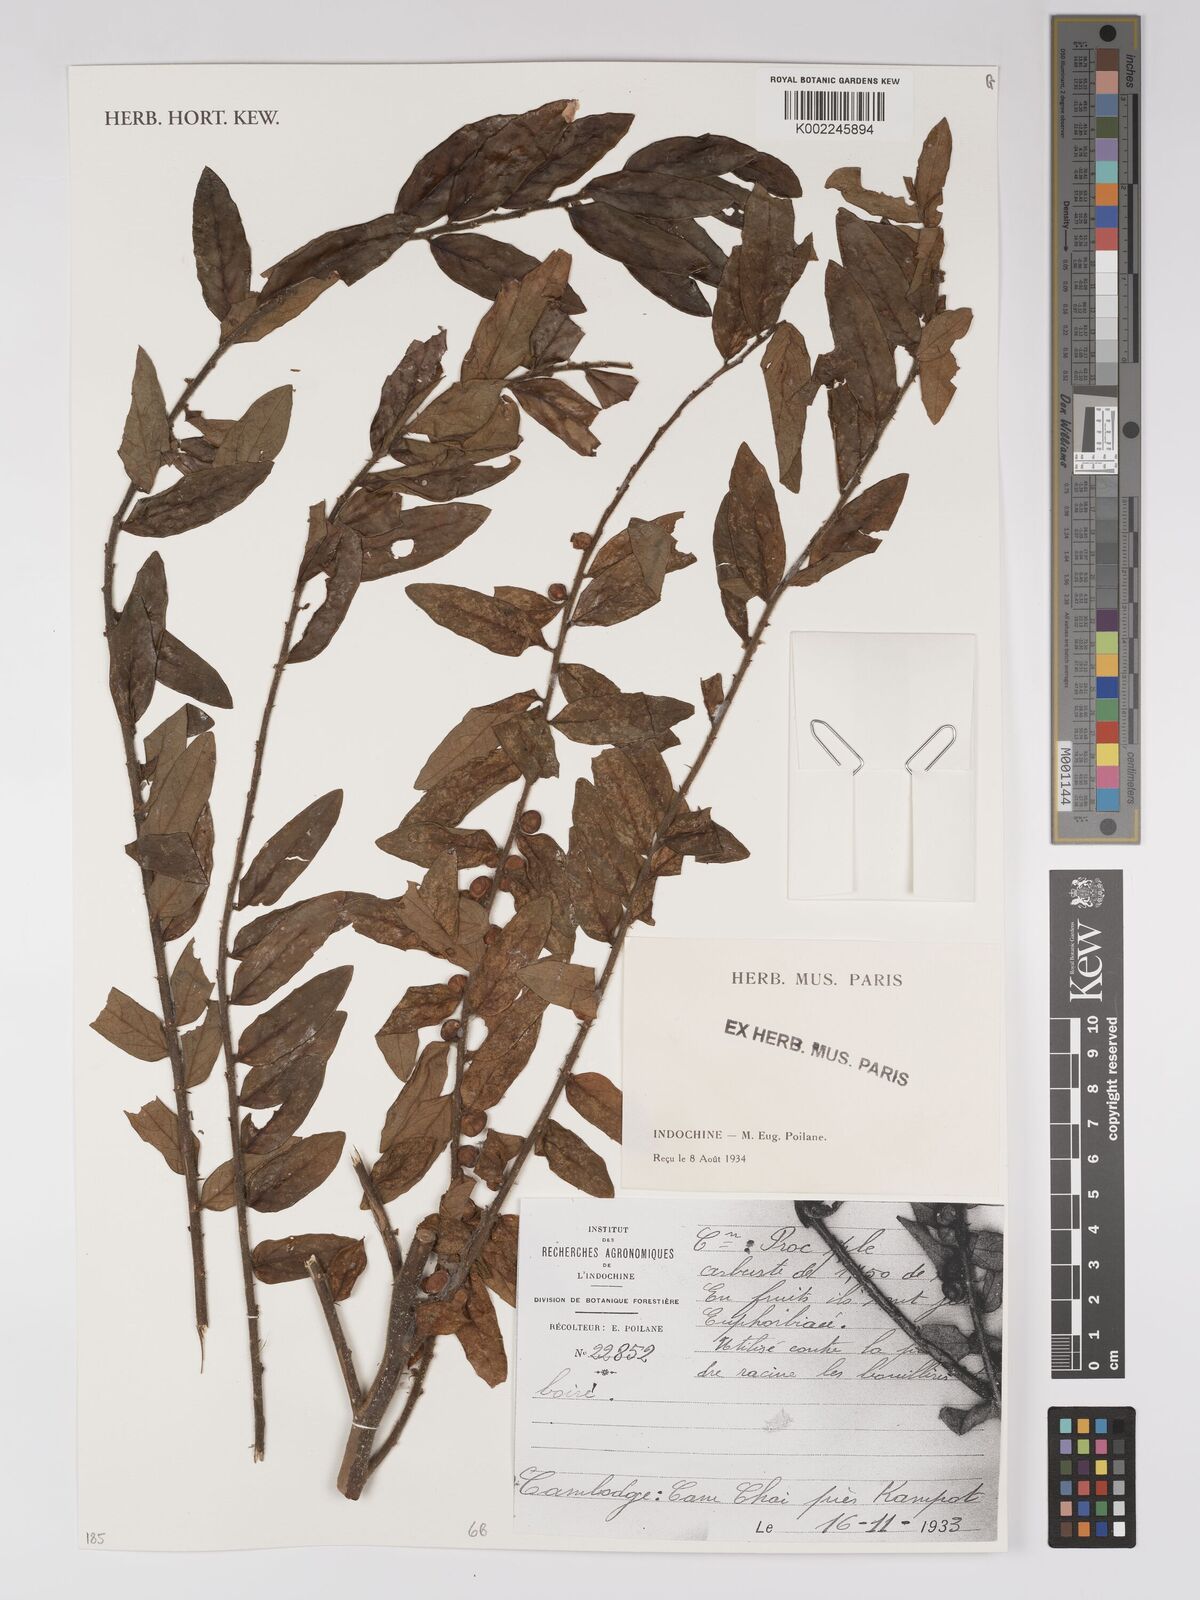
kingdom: Plantae
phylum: Tracheophyta
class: Magnoliopsida
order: Malpighiales
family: Euphorbiaceae
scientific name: Euphorbiaceae
